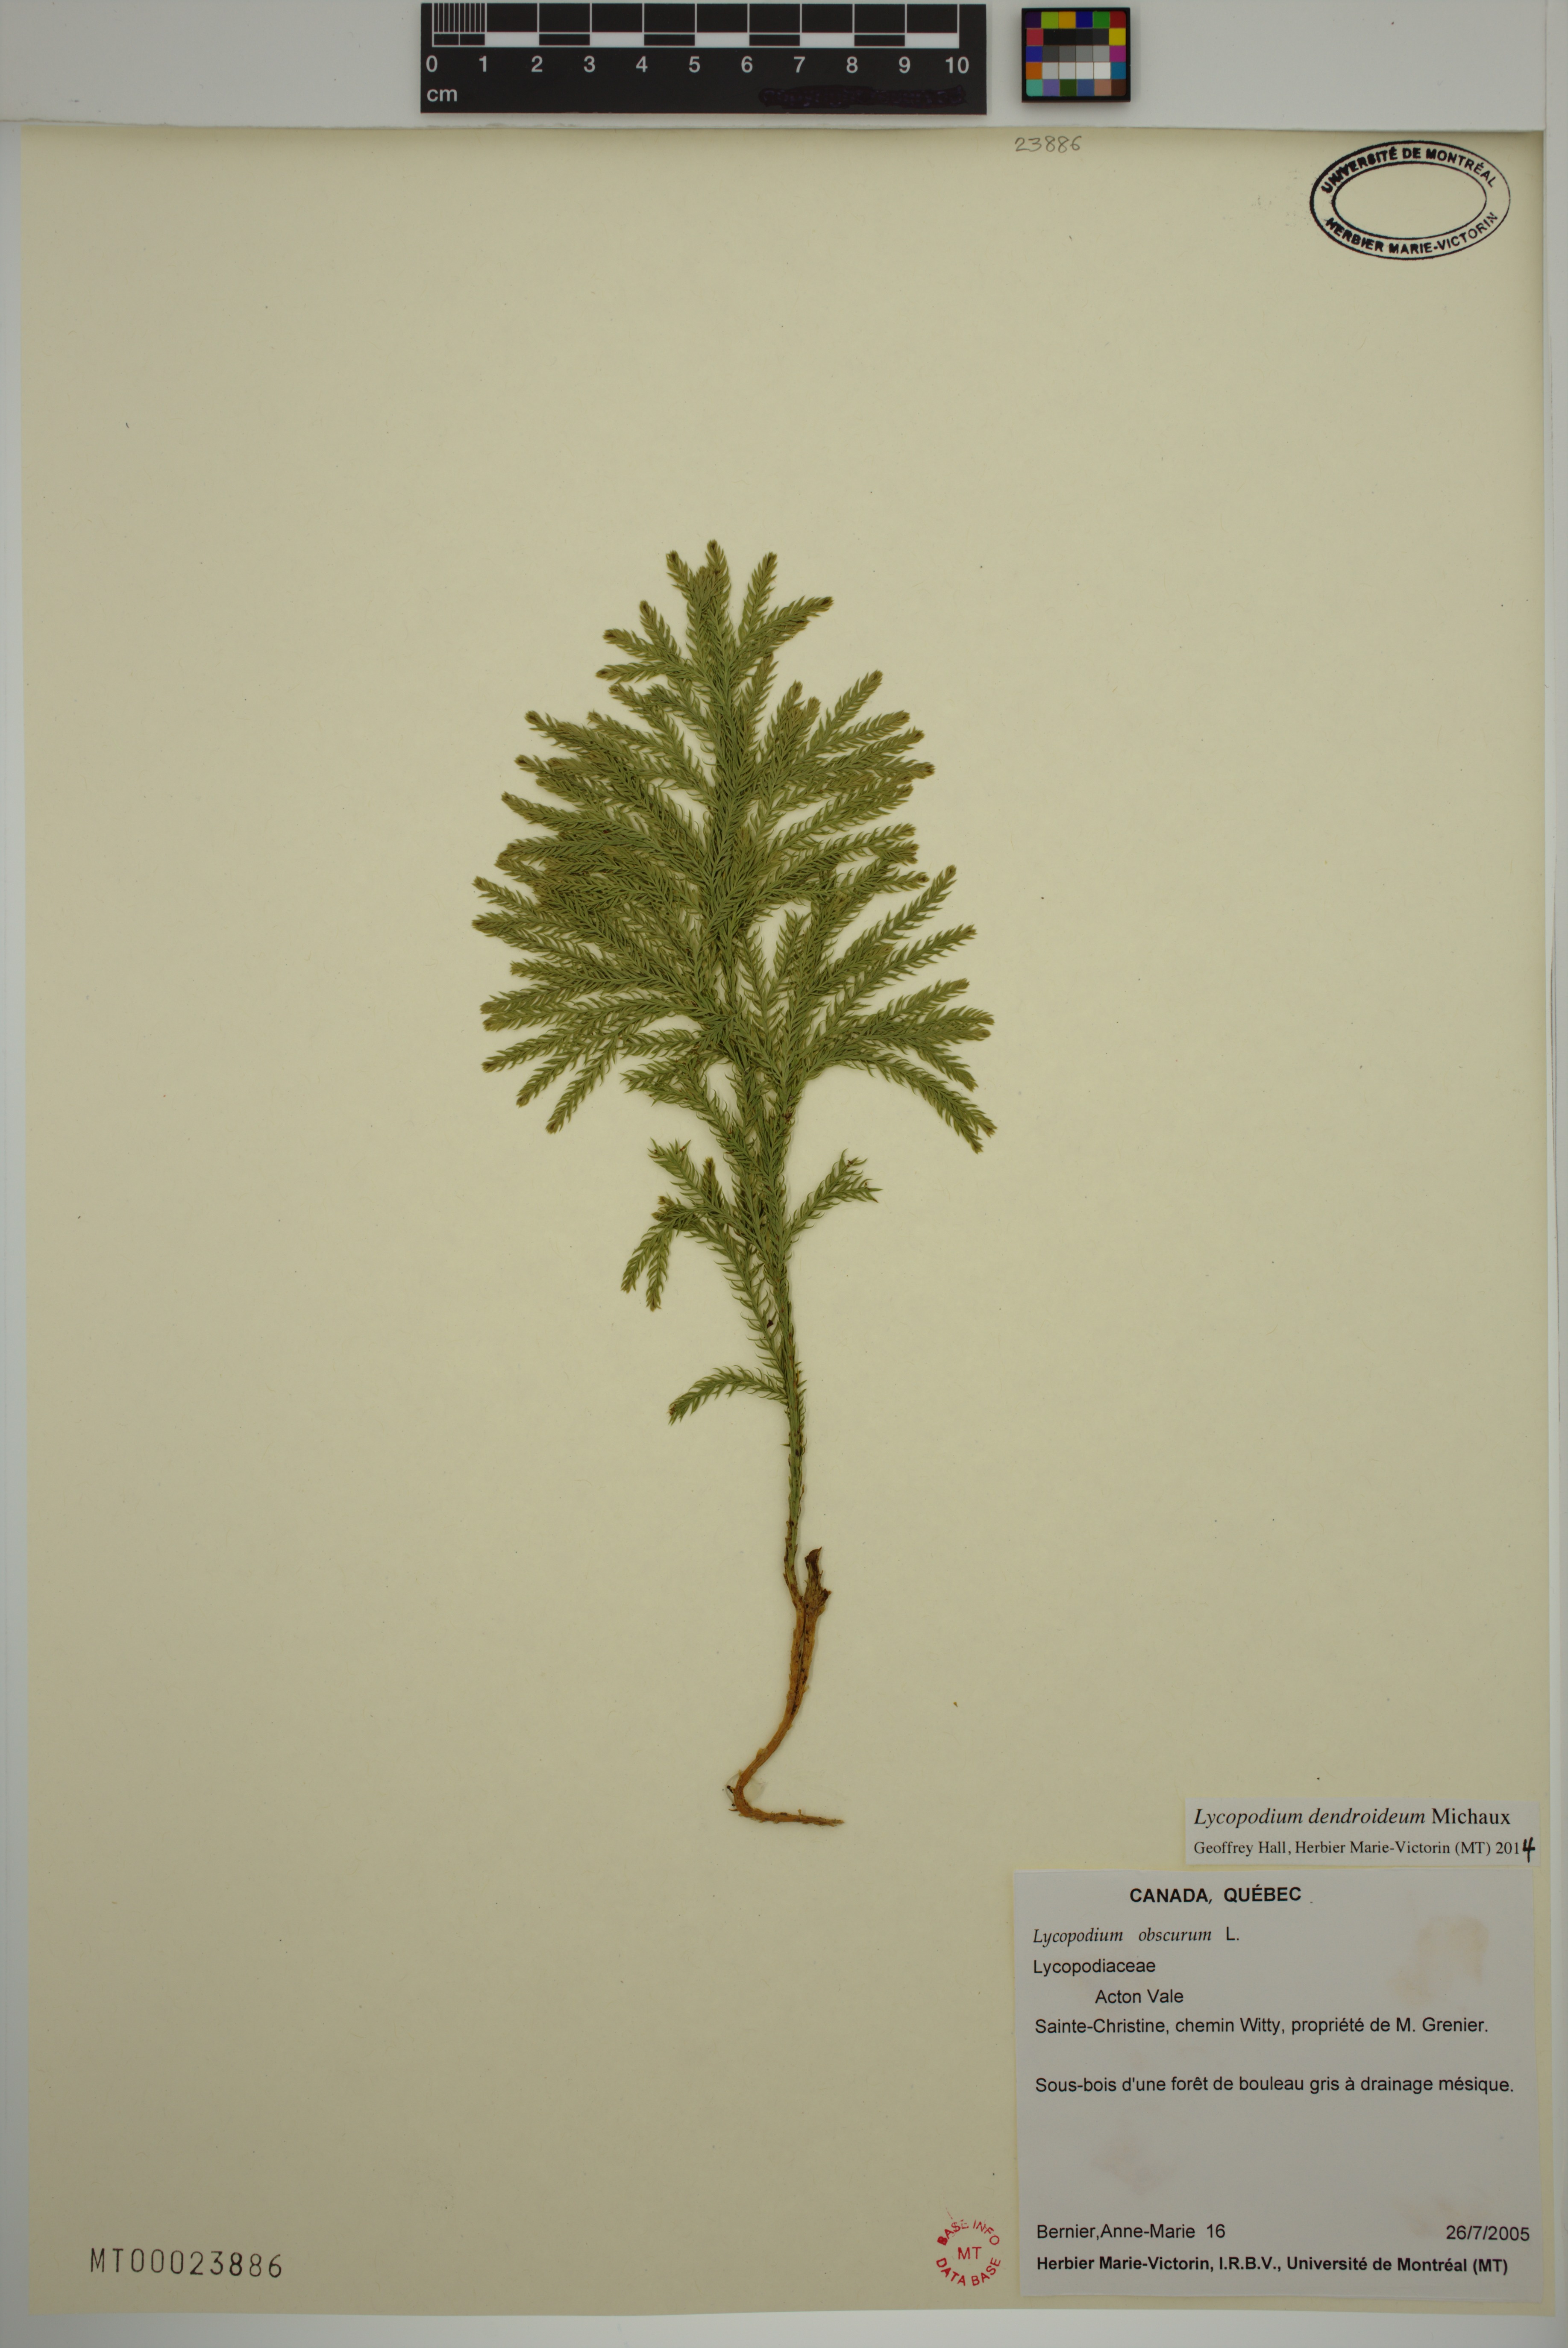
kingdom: Plantae
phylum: Tracheophyta
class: Lycopodiopsida
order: Lycopodiales
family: Lycopodiaceae
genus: Dendrolycopodium
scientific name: Dendrolycopodium dendroideum
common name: Northern tree-clubmoss
